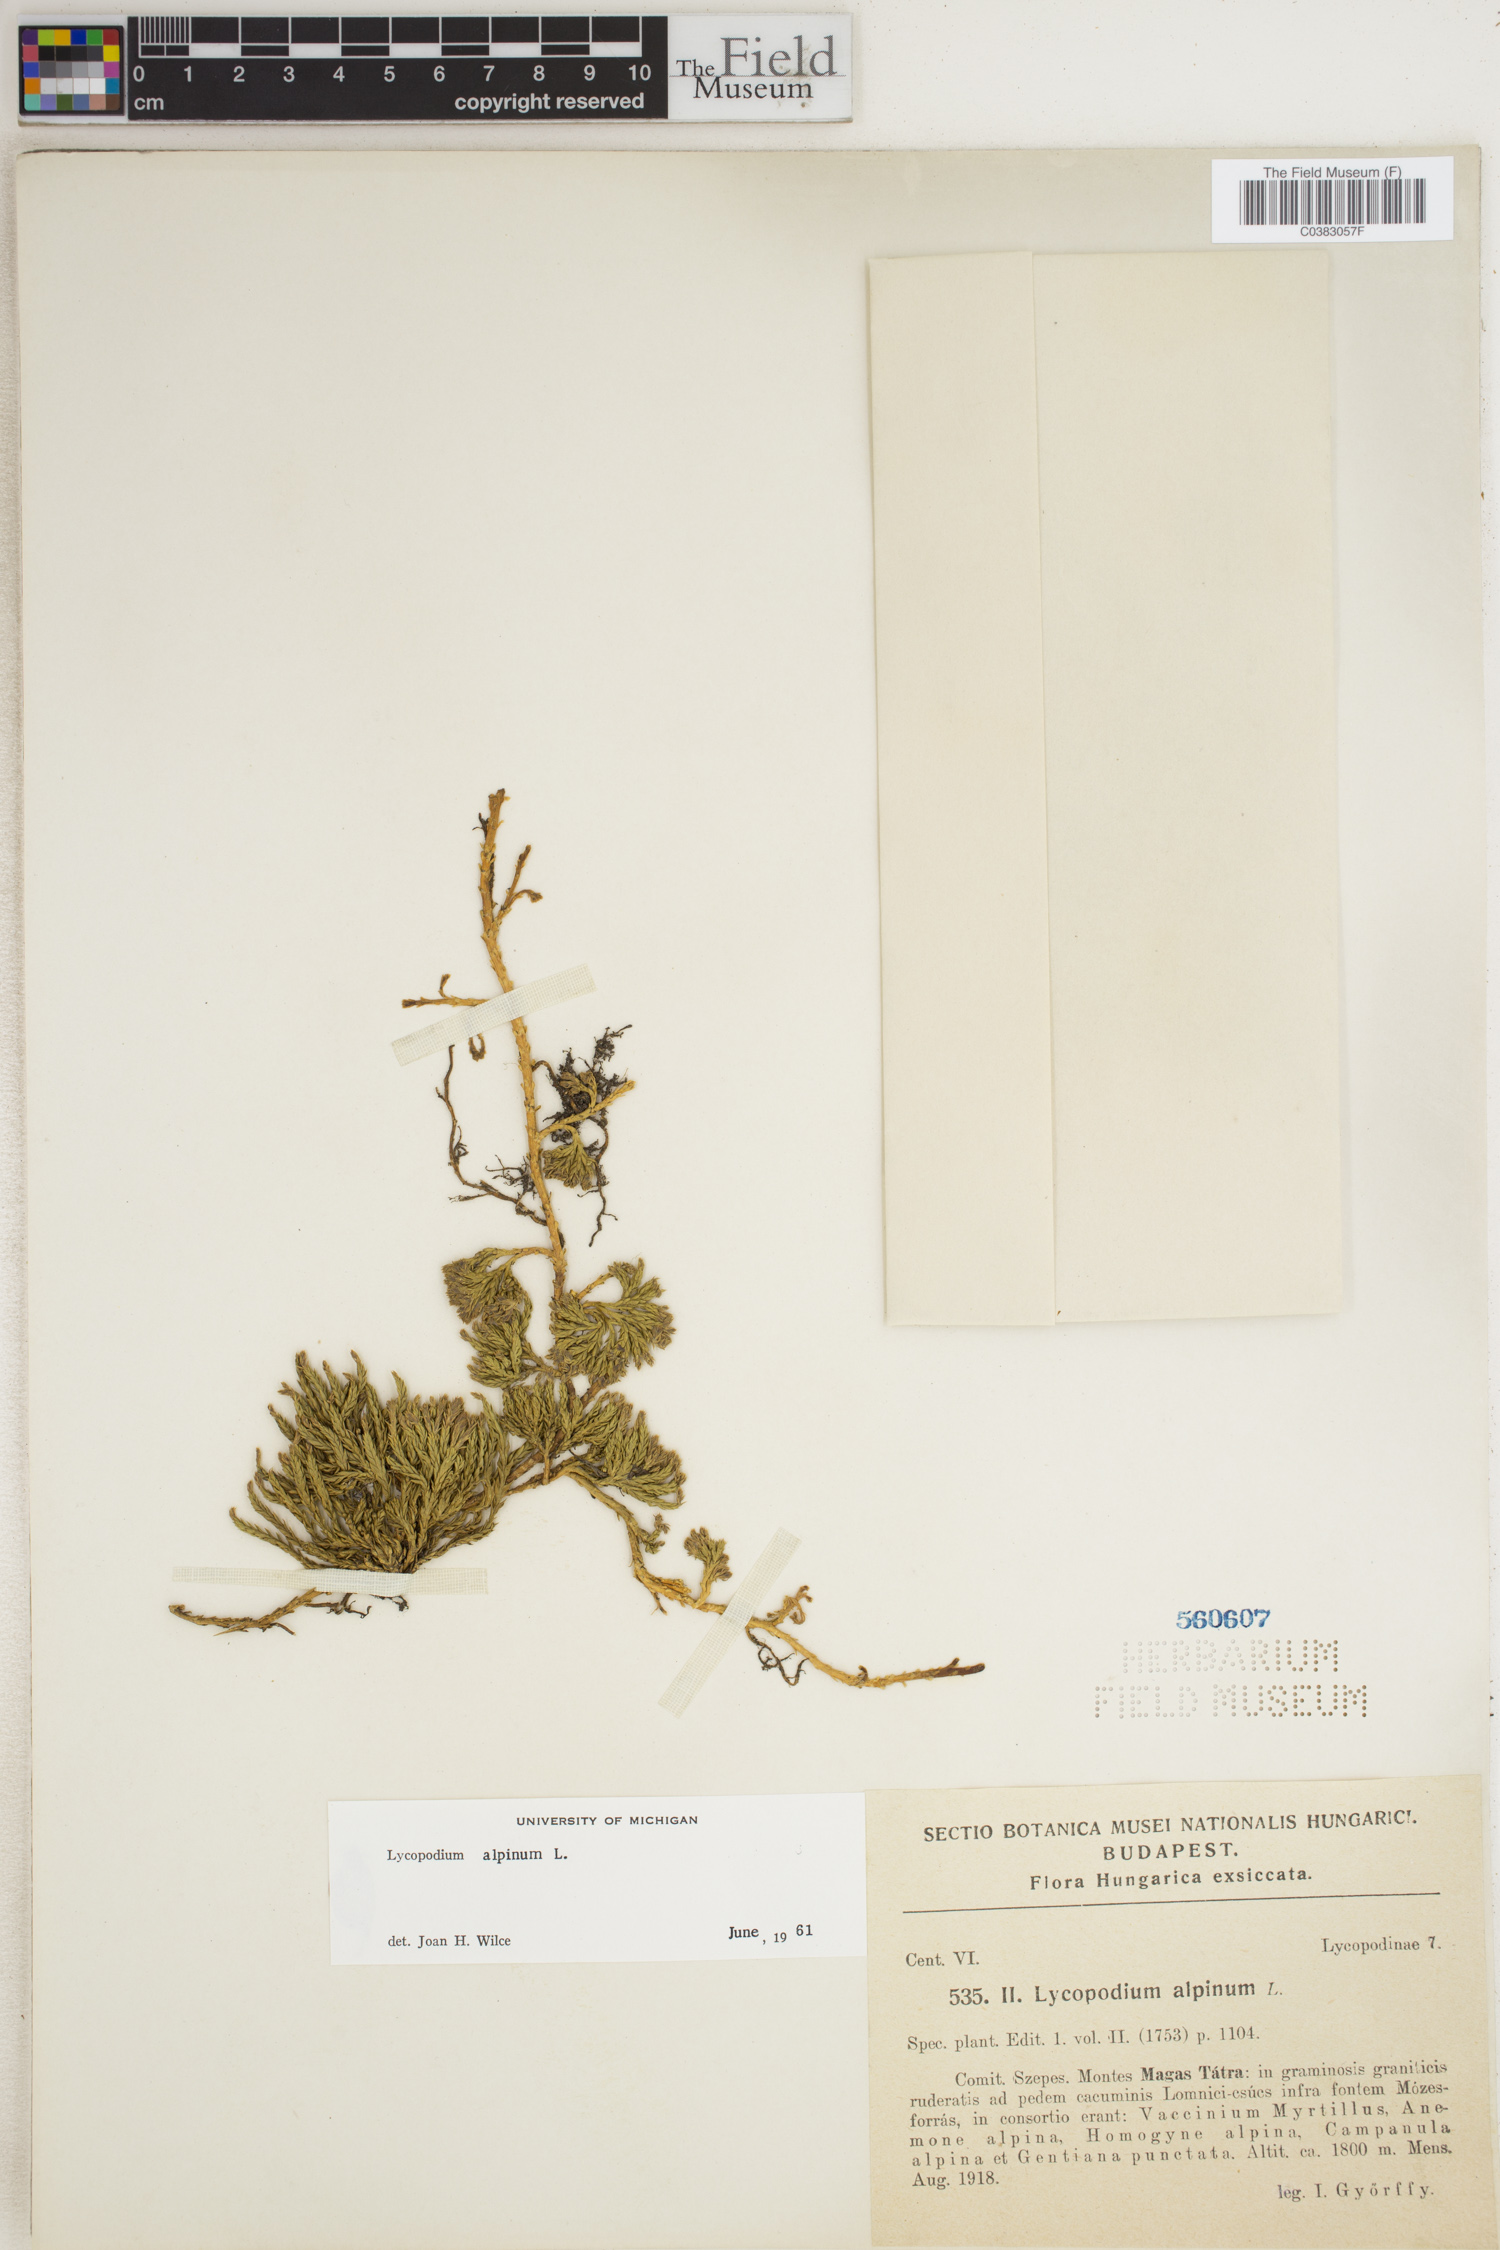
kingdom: Plantae
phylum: Tracheophyta
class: Lycopodiopsida
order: Lycopodiales
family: Lycopodiaceae
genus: Diphasiastrum
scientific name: Diphasiastrum alpinum
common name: Alpine clubmoss
